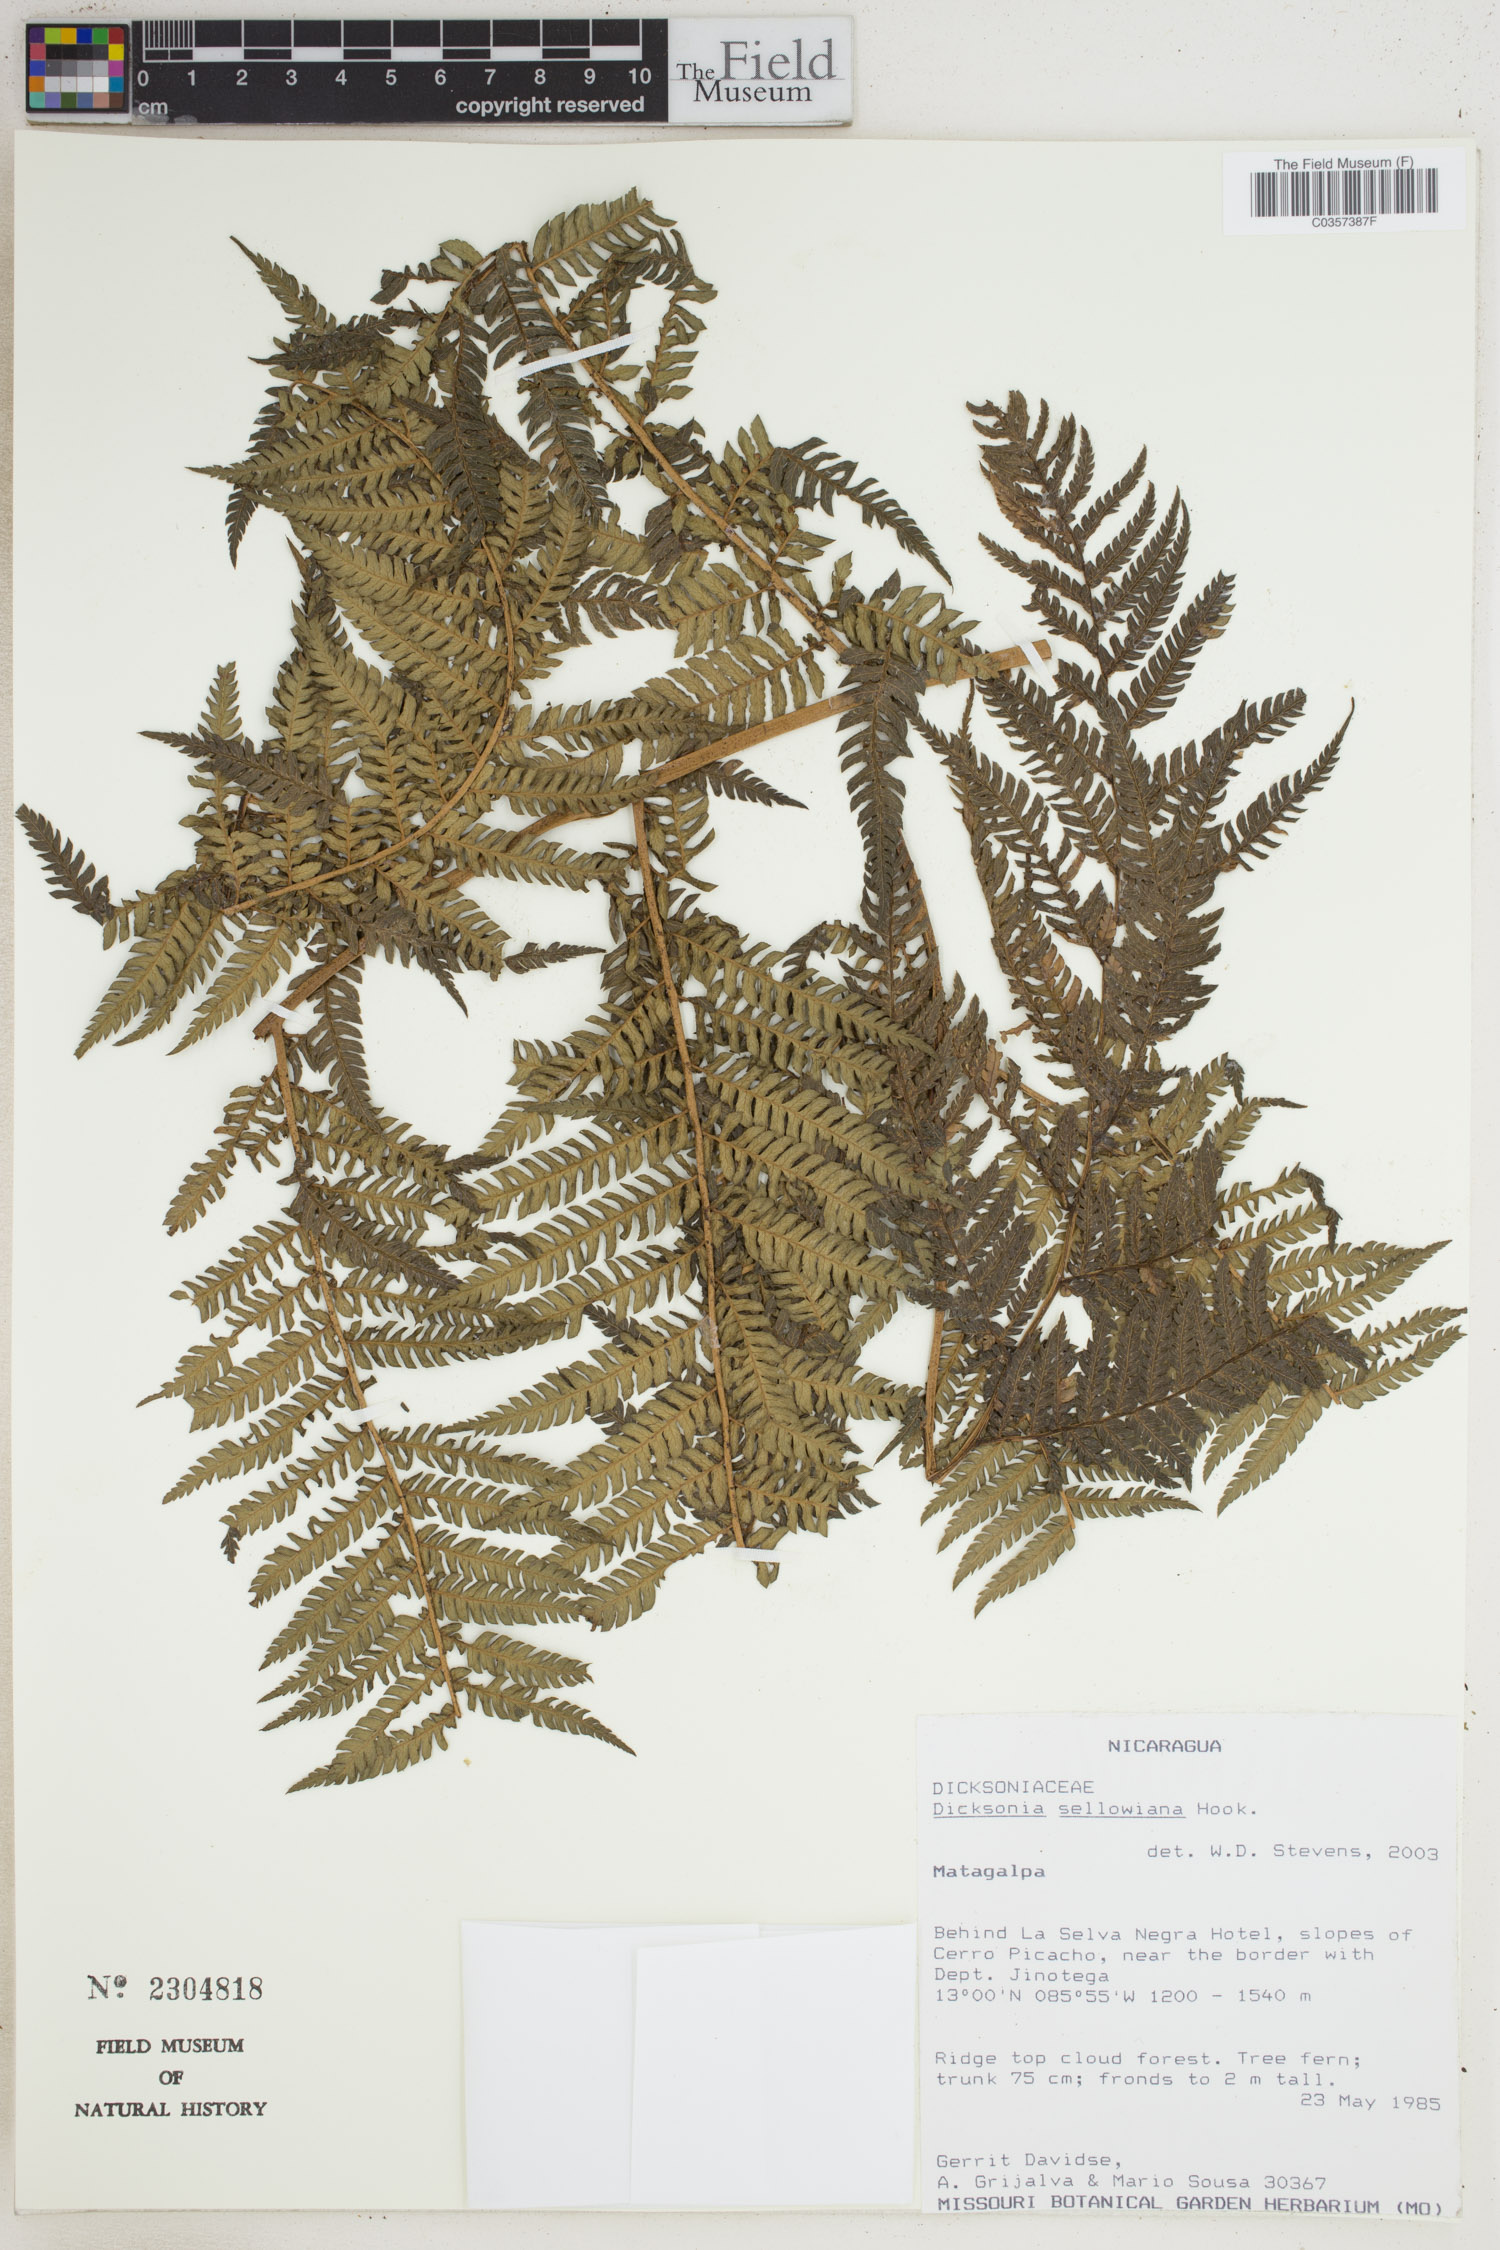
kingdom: Plantae
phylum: Tracheophyta
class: Polypodiopsida
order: Cyatheales
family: Dicksoniaceae
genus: Dicksonia
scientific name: Dicksonia sellowiana
